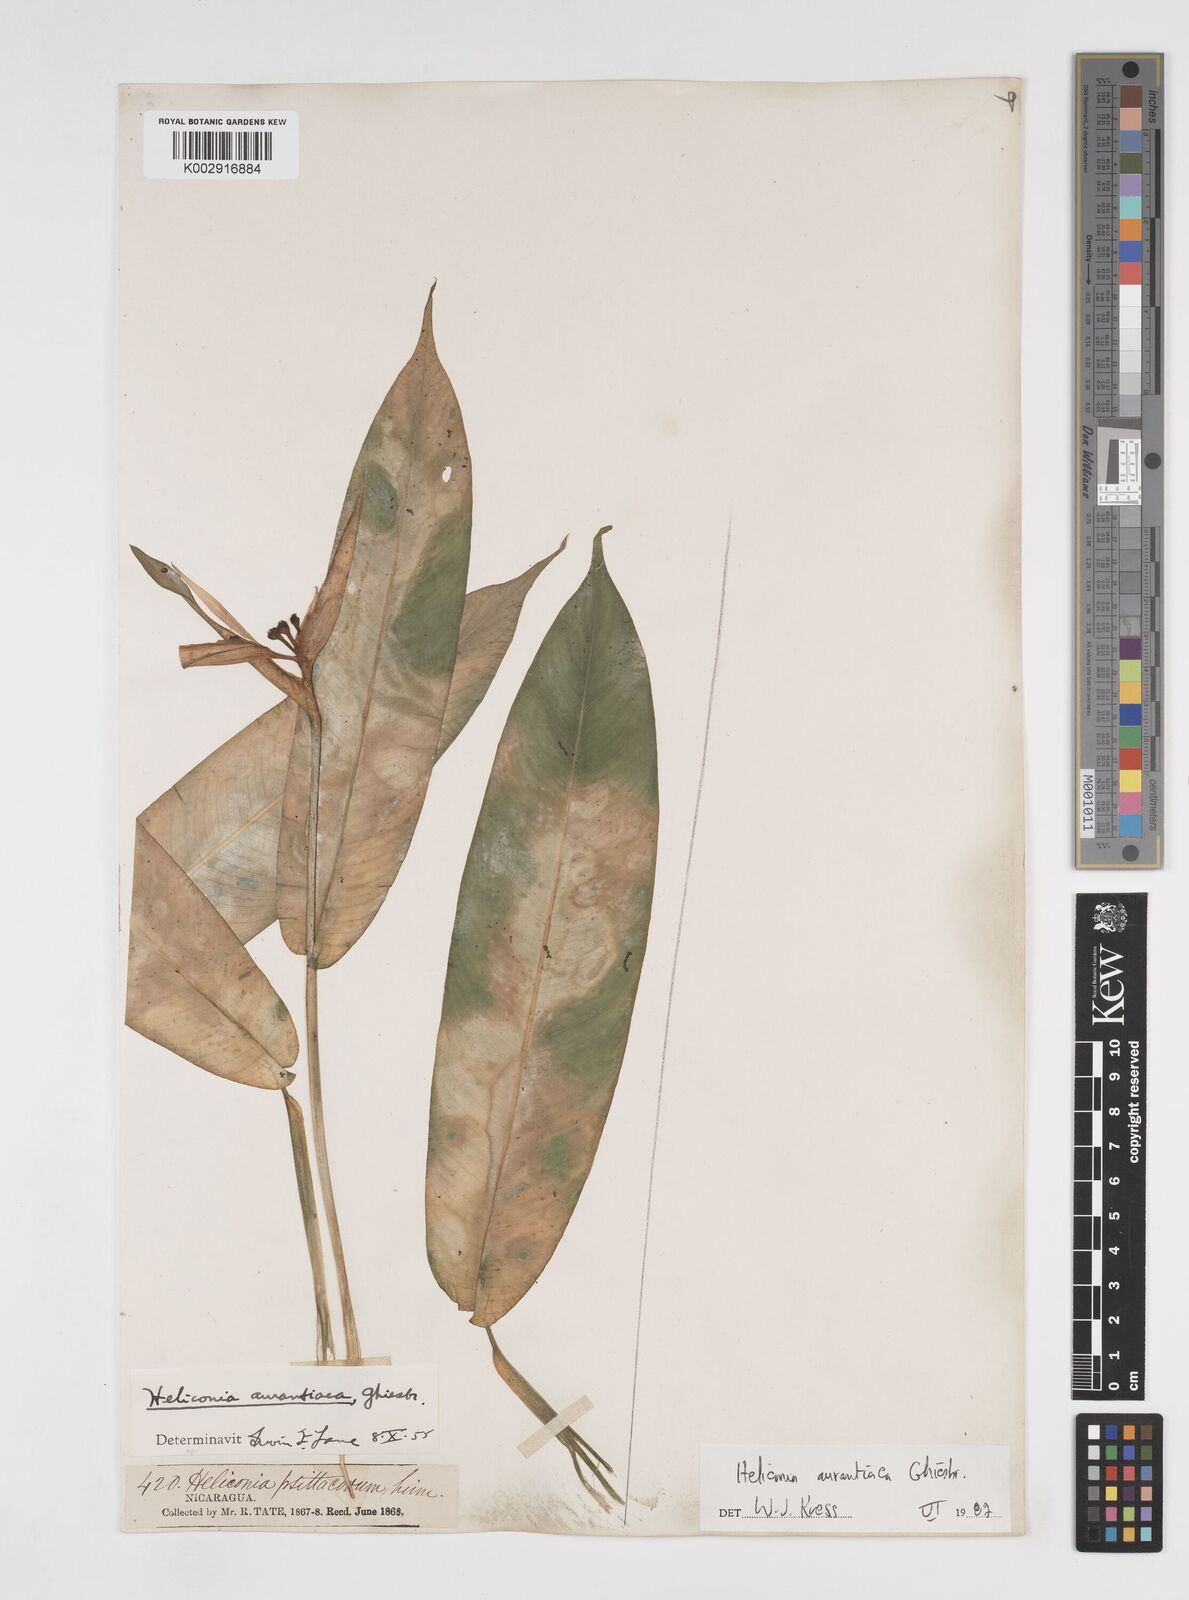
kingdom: Plantae
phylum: Tracheophyta
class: Liliopsida
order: Zingiberales
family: Heliconiaceae
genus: Heliconia
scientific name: Heliconia aurantiaca
